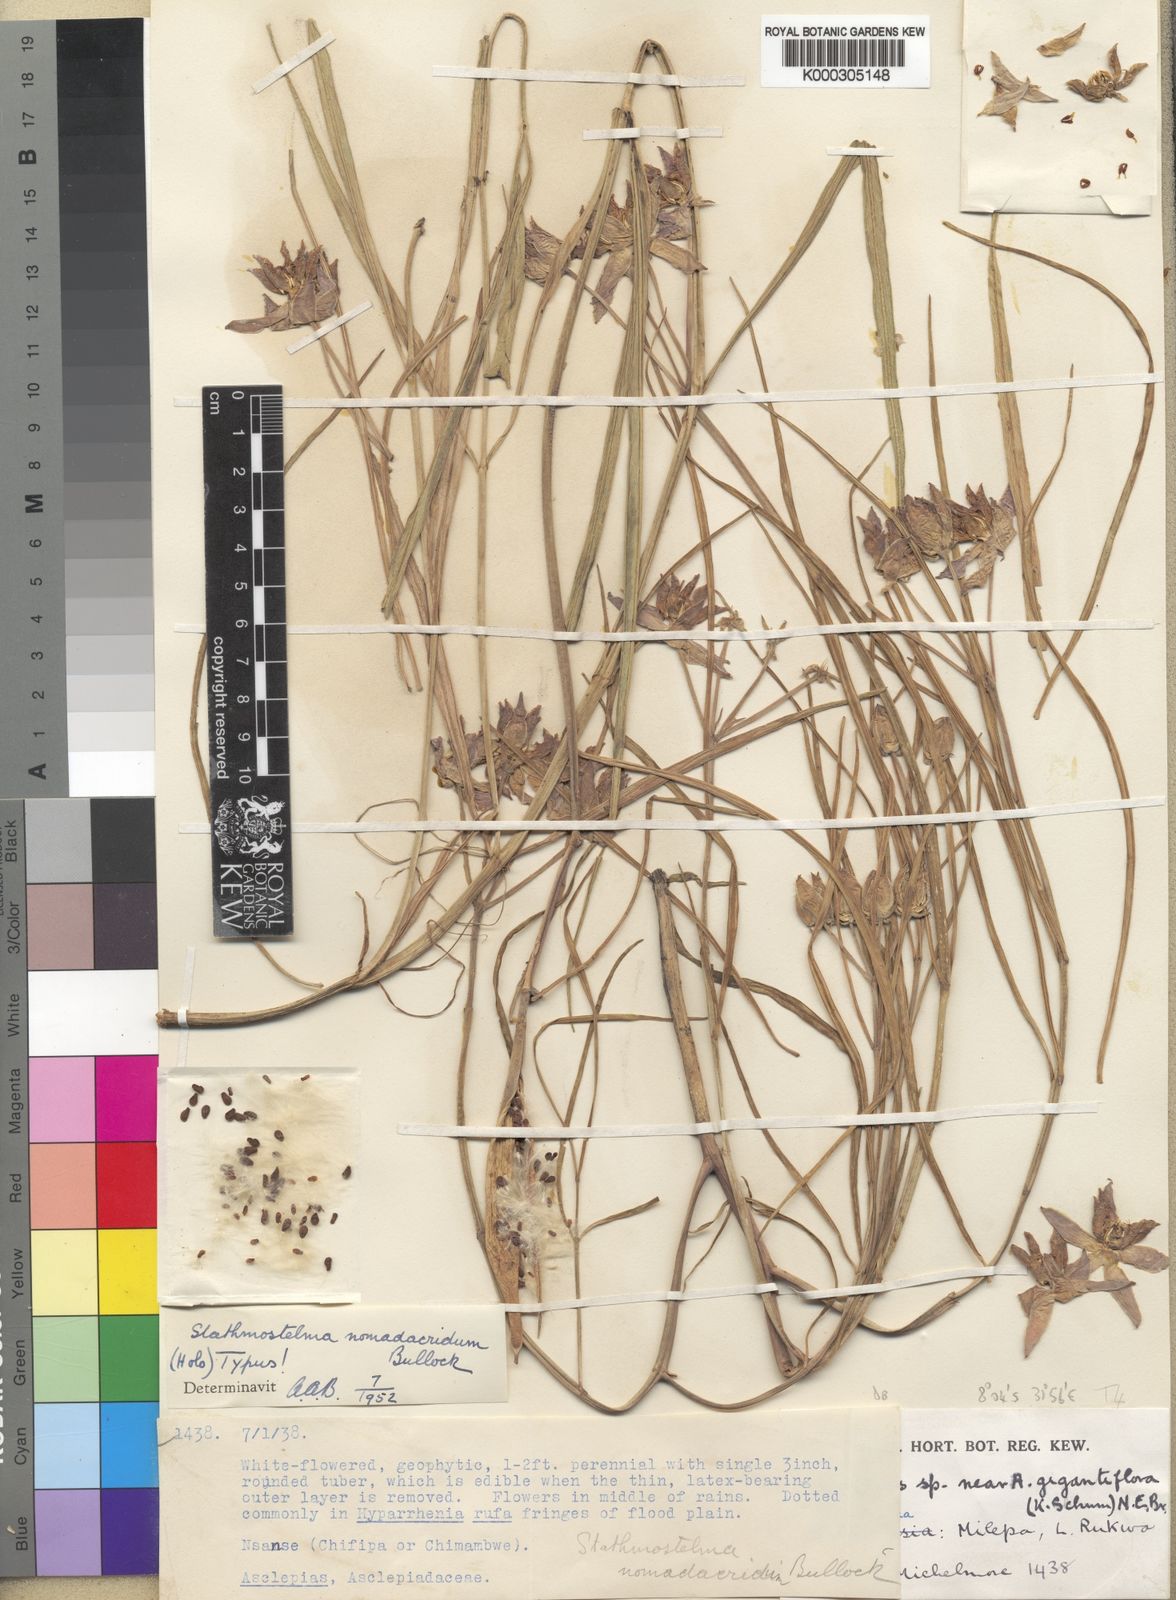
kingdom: Plantae
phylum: Tracheophyta
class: Magnoliopsida
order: Gentianales
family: Apocynaceae
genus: Stathmostelma
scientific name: Stathmostelma gigantiflorum
